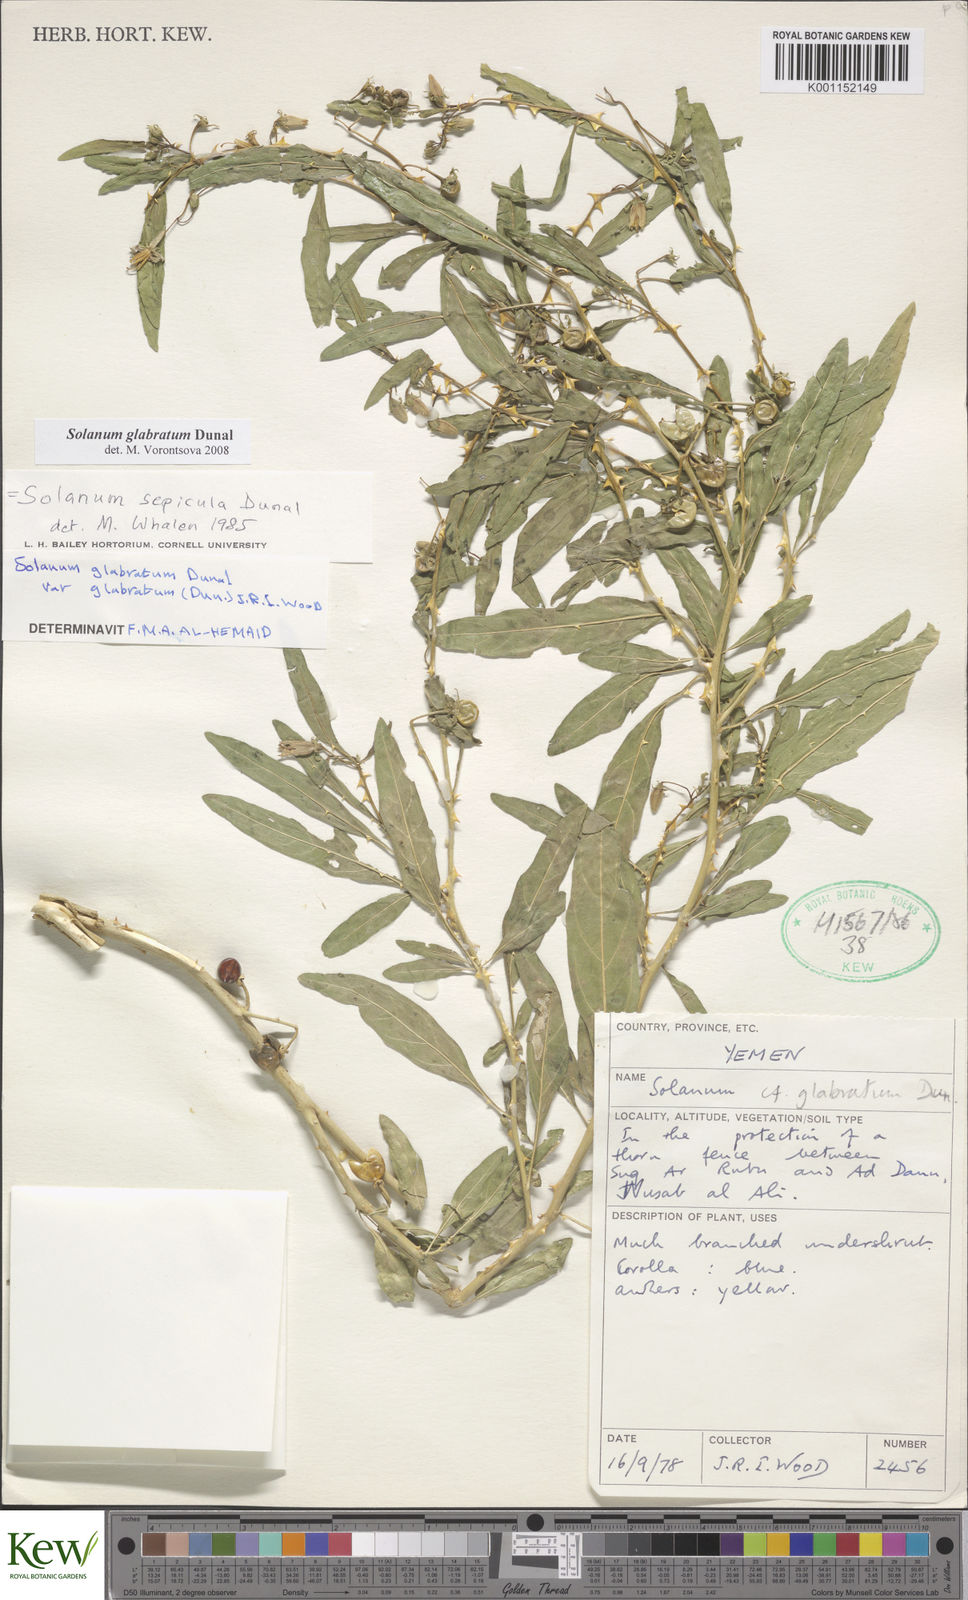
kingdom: Plantae
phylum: Tracheophyta
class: Magnoliopsida
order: Solanales
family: Solanaceae
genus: Solanum
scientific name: Solanum glabratum
